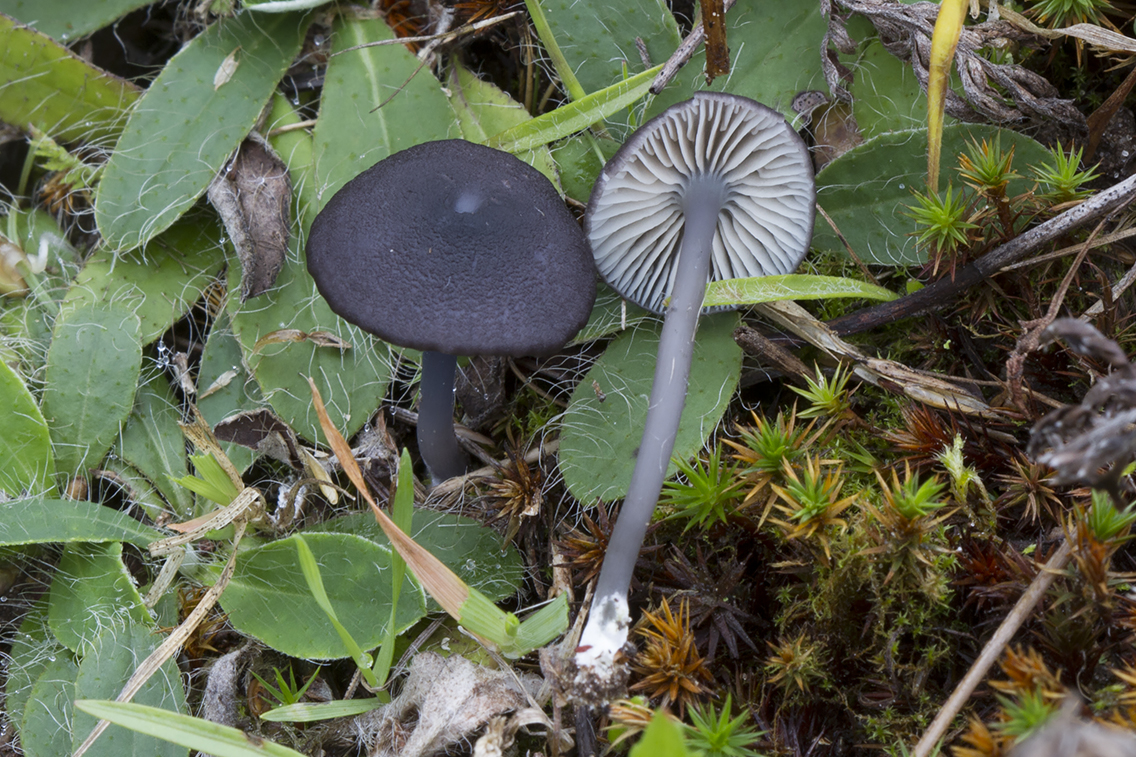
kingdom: Fungi
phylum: Basidiomycota
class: Agaricomycetes
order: Agaricales
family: Entolomataceae
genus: Entoloma
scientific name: Entoloma pseudocruentatum
